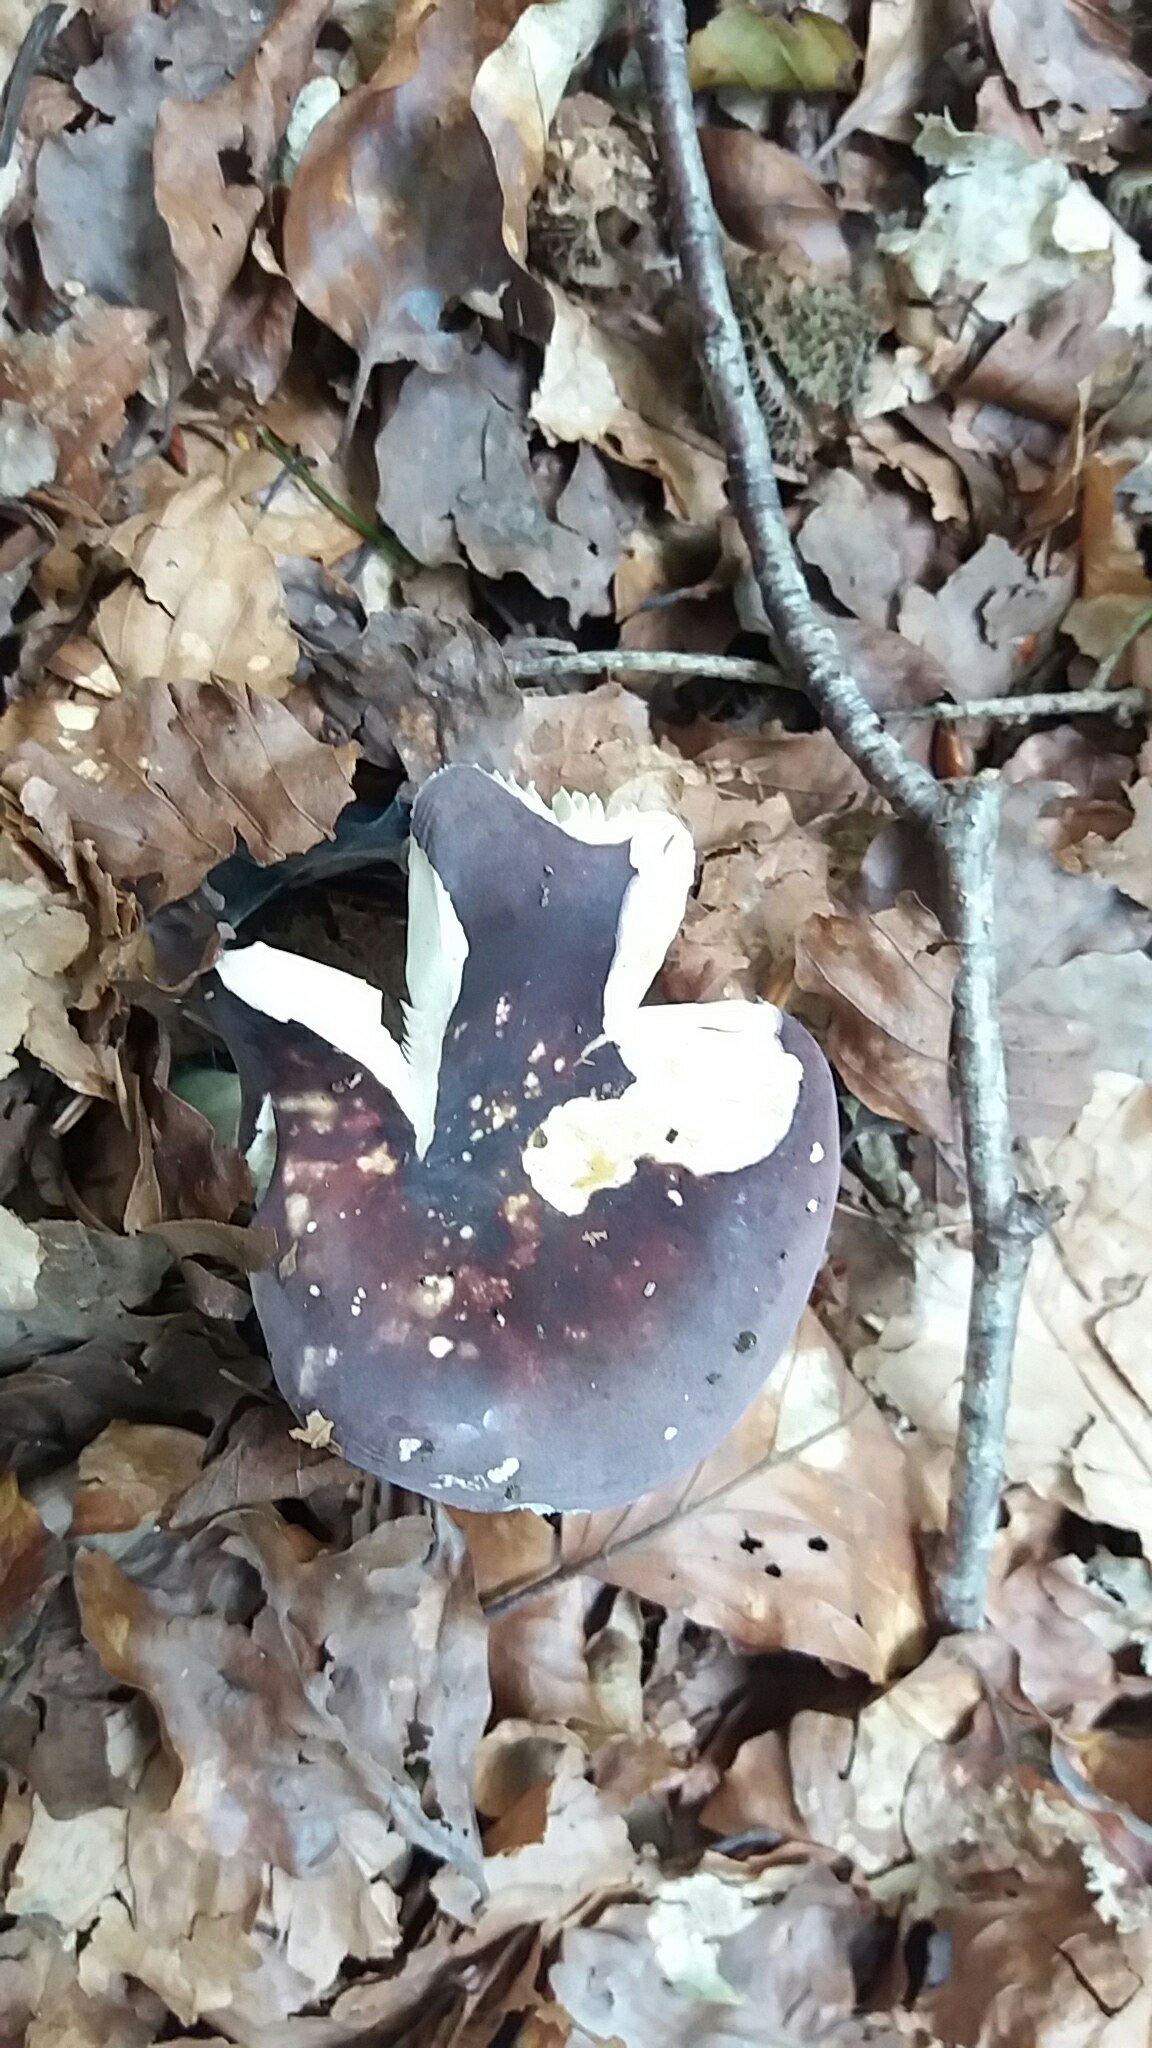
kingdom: Fungi
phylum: Basidiomycota
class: Agaricomycetes
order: Russulales
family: Russulaceae
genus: Russula
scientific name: Russula
